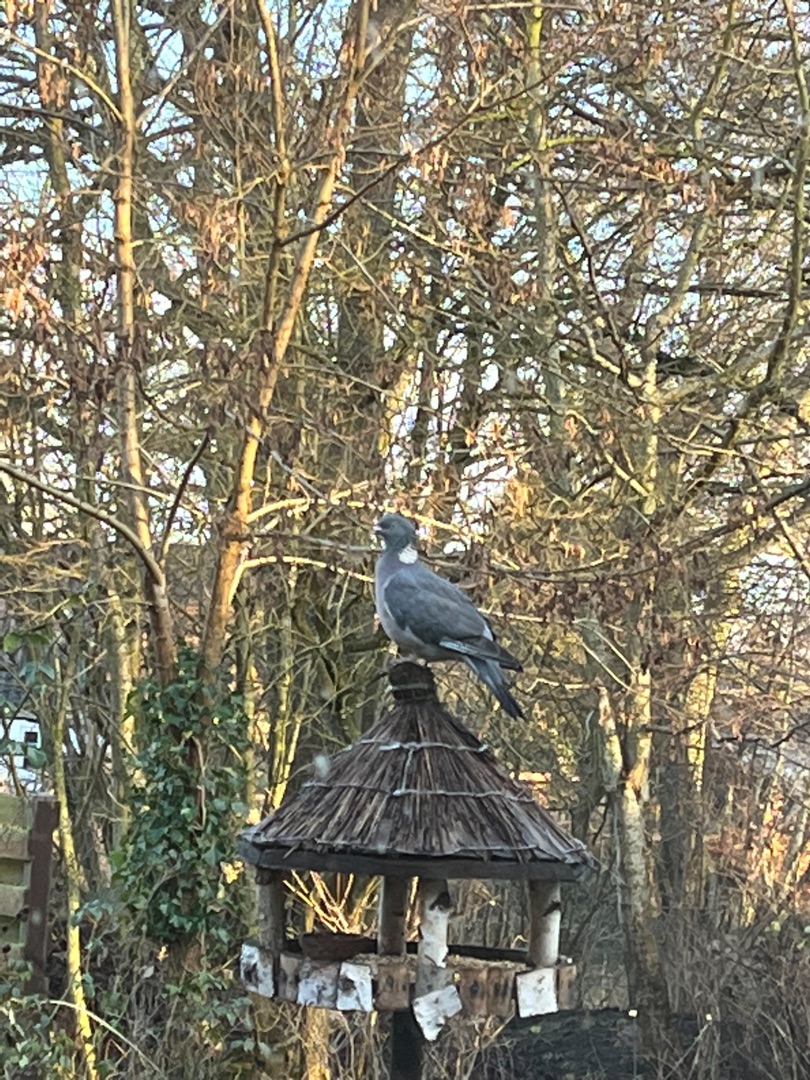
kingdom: Animalia
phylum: Chordata
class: Aves
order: Columbiformes
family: Columbidae
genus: Columba
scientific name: Columba palumbus
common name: Ringdue
